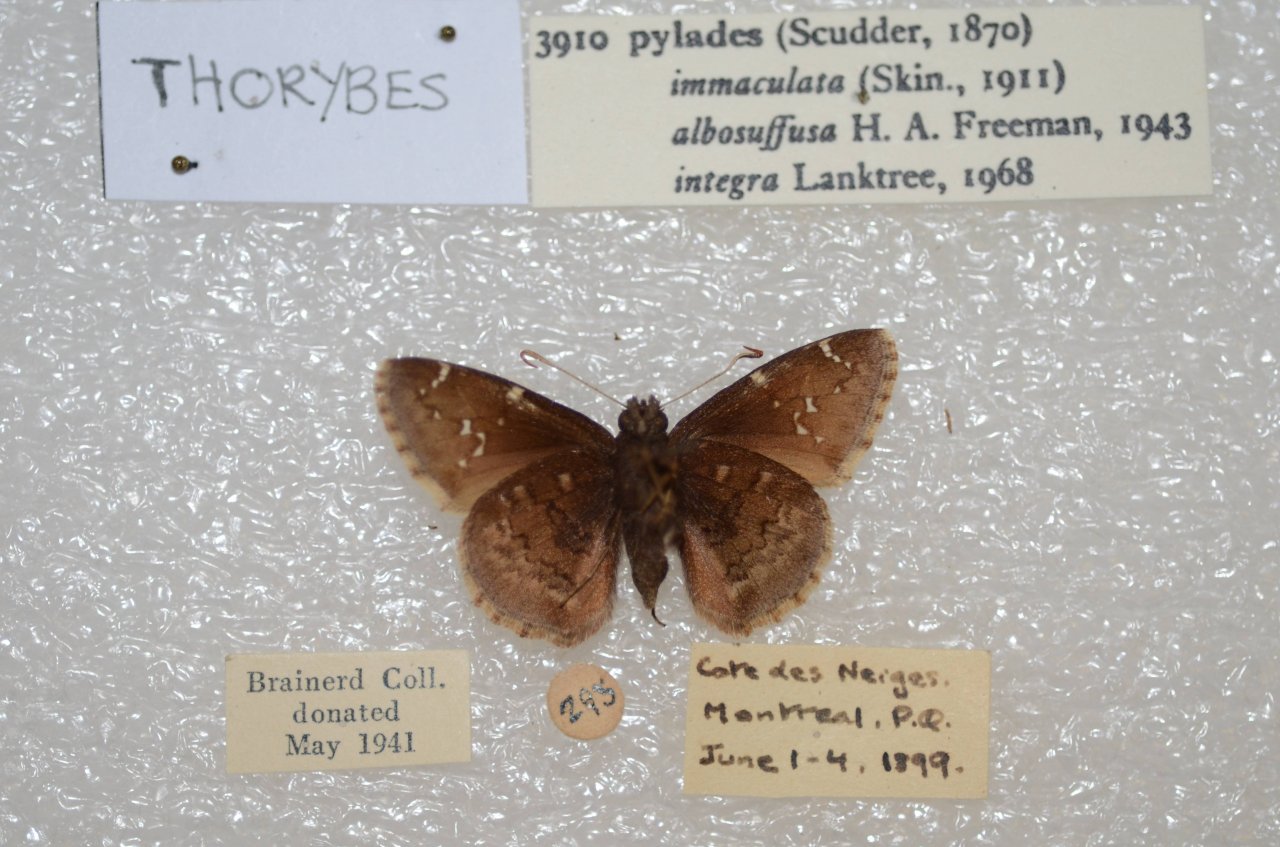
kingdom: Animalia
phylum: Arthropoda
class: Insecta
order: Lepidoptera
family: Hesperiidae
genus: Autochton
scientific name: Autochton
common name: Northern Cloudywing
